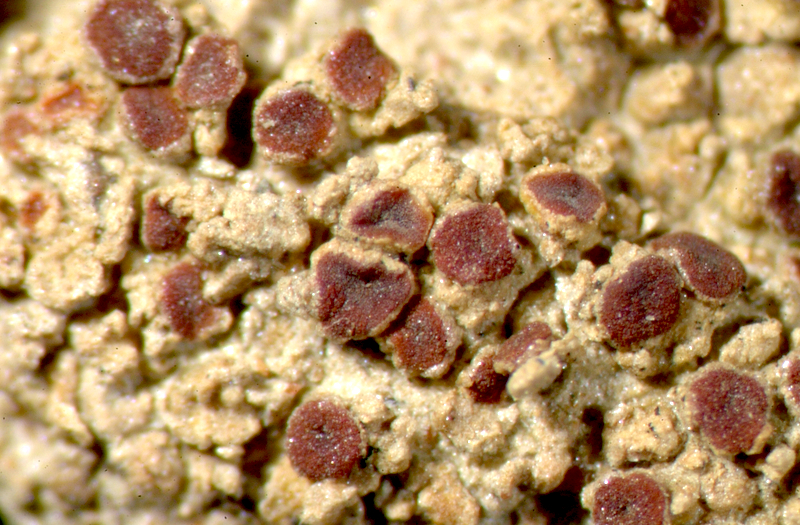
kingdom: Fungi
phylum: Ascomycota
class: Lecanoromycetes
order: Teloschistales
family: Teloschistaceae
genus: Caloplaca
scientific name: Caloplaca
